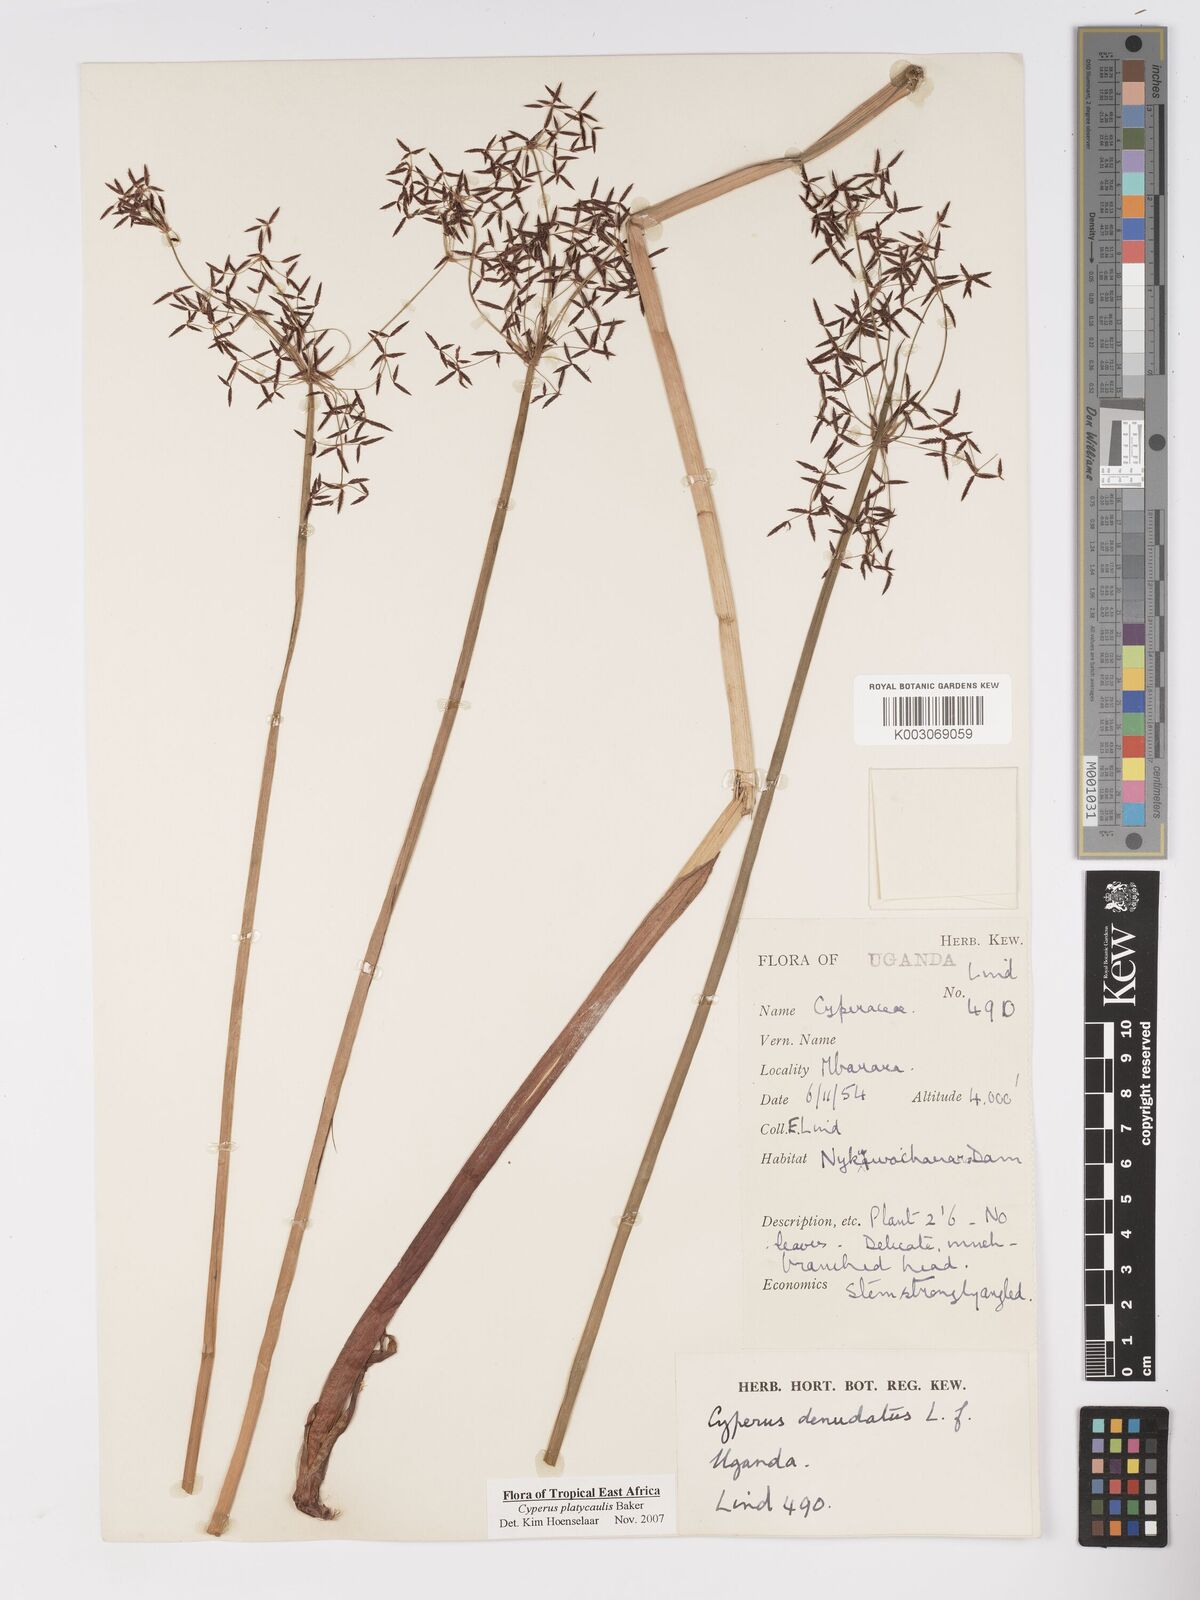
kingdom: Plantae
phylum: Tracheophyta
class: Liliopsida
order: Poales
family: Cyperaceae
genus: Cyperus
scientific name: Cyperus platycaulis
